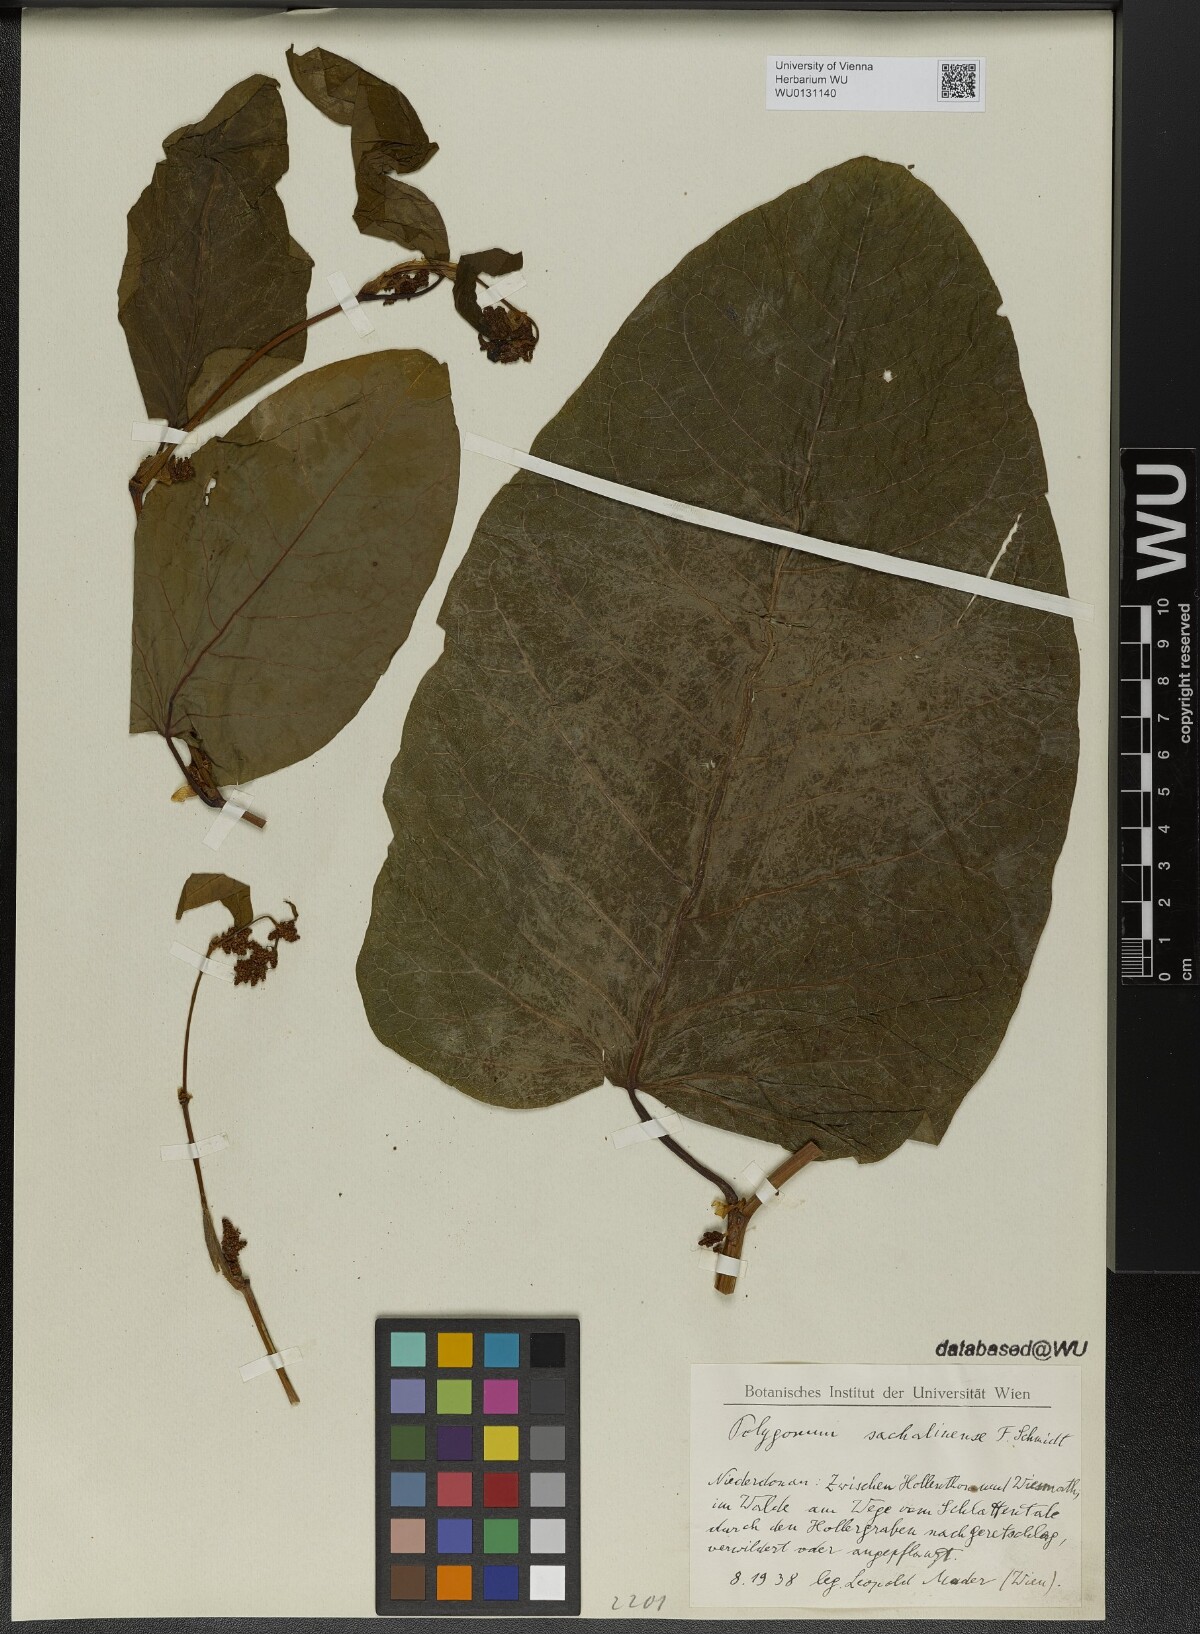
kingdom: Plantae
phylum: Tracheophyta
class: Magnoliopsida
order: Caryophyllales
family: Polygonaceae
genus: Reynoutria
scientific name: Reynoutria sachalinensis
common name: Giant knotweed
